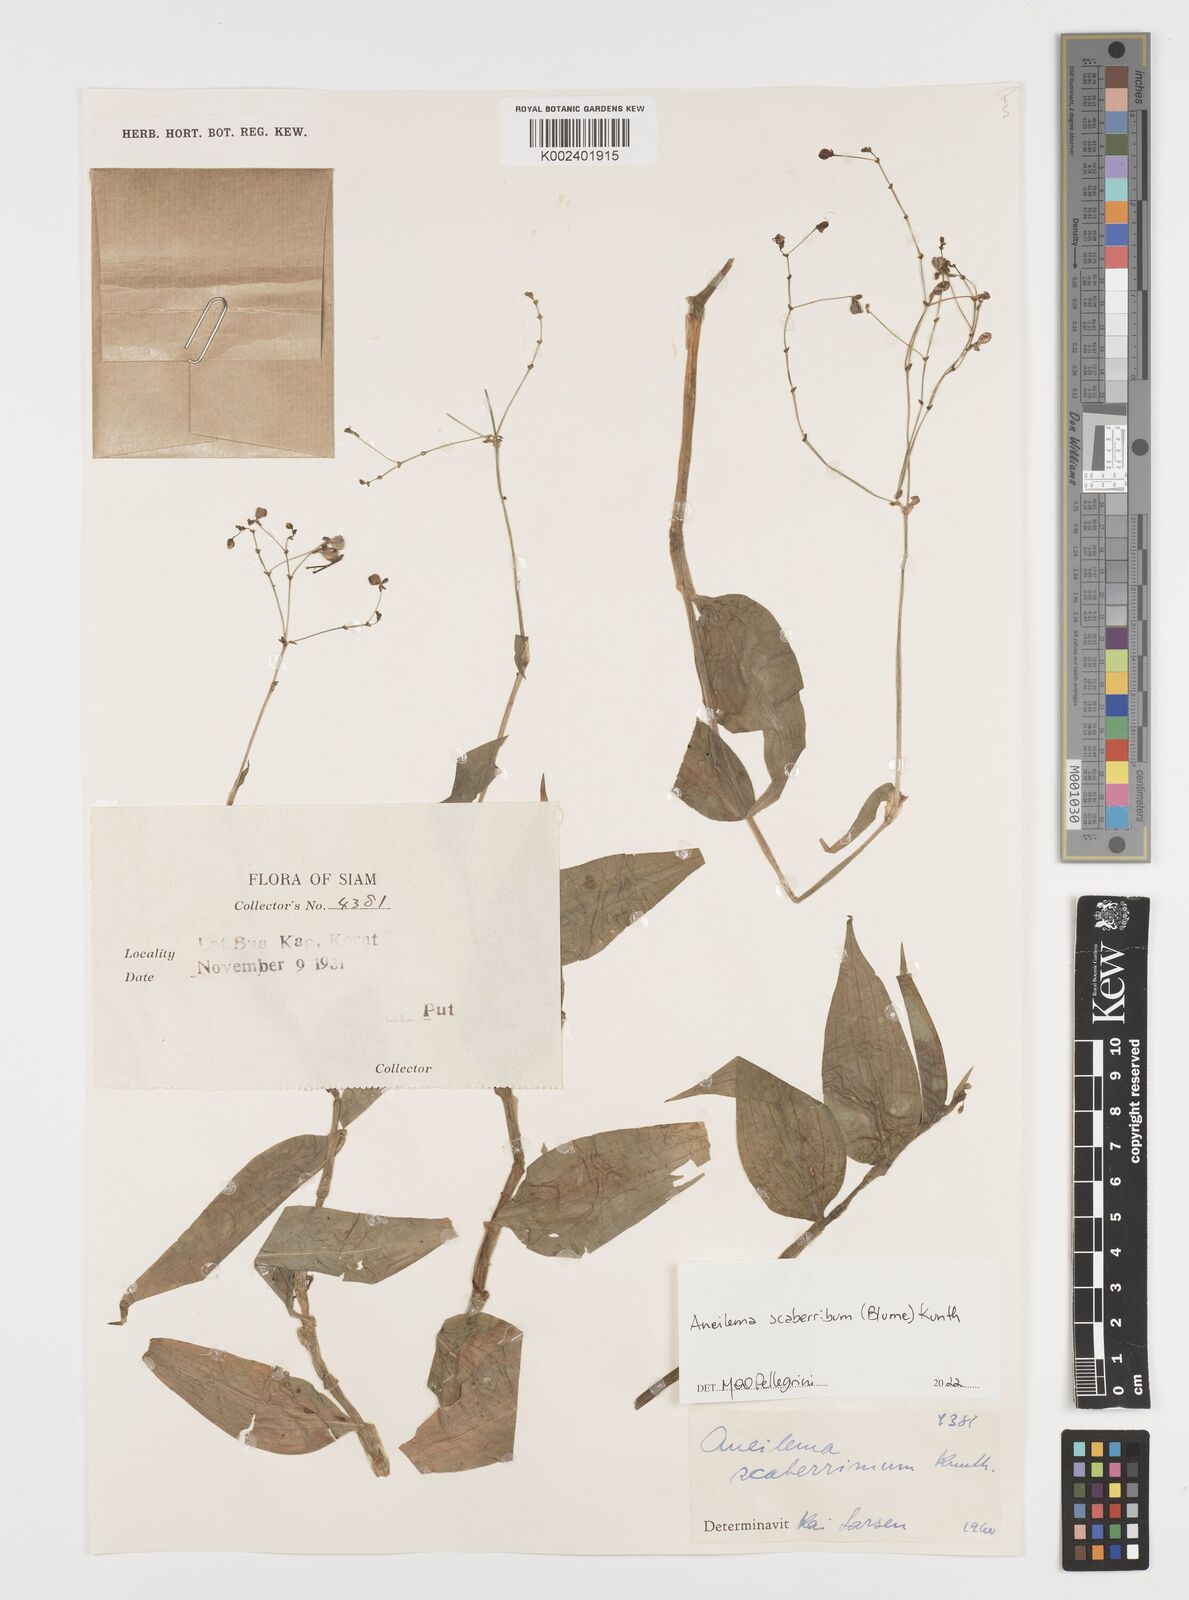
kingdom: Plantae
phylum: Tracheophyta
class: Liliopsida
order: Commelinales
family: Commelinaceae
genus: Rhopalephora
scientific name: Rhopalephora
